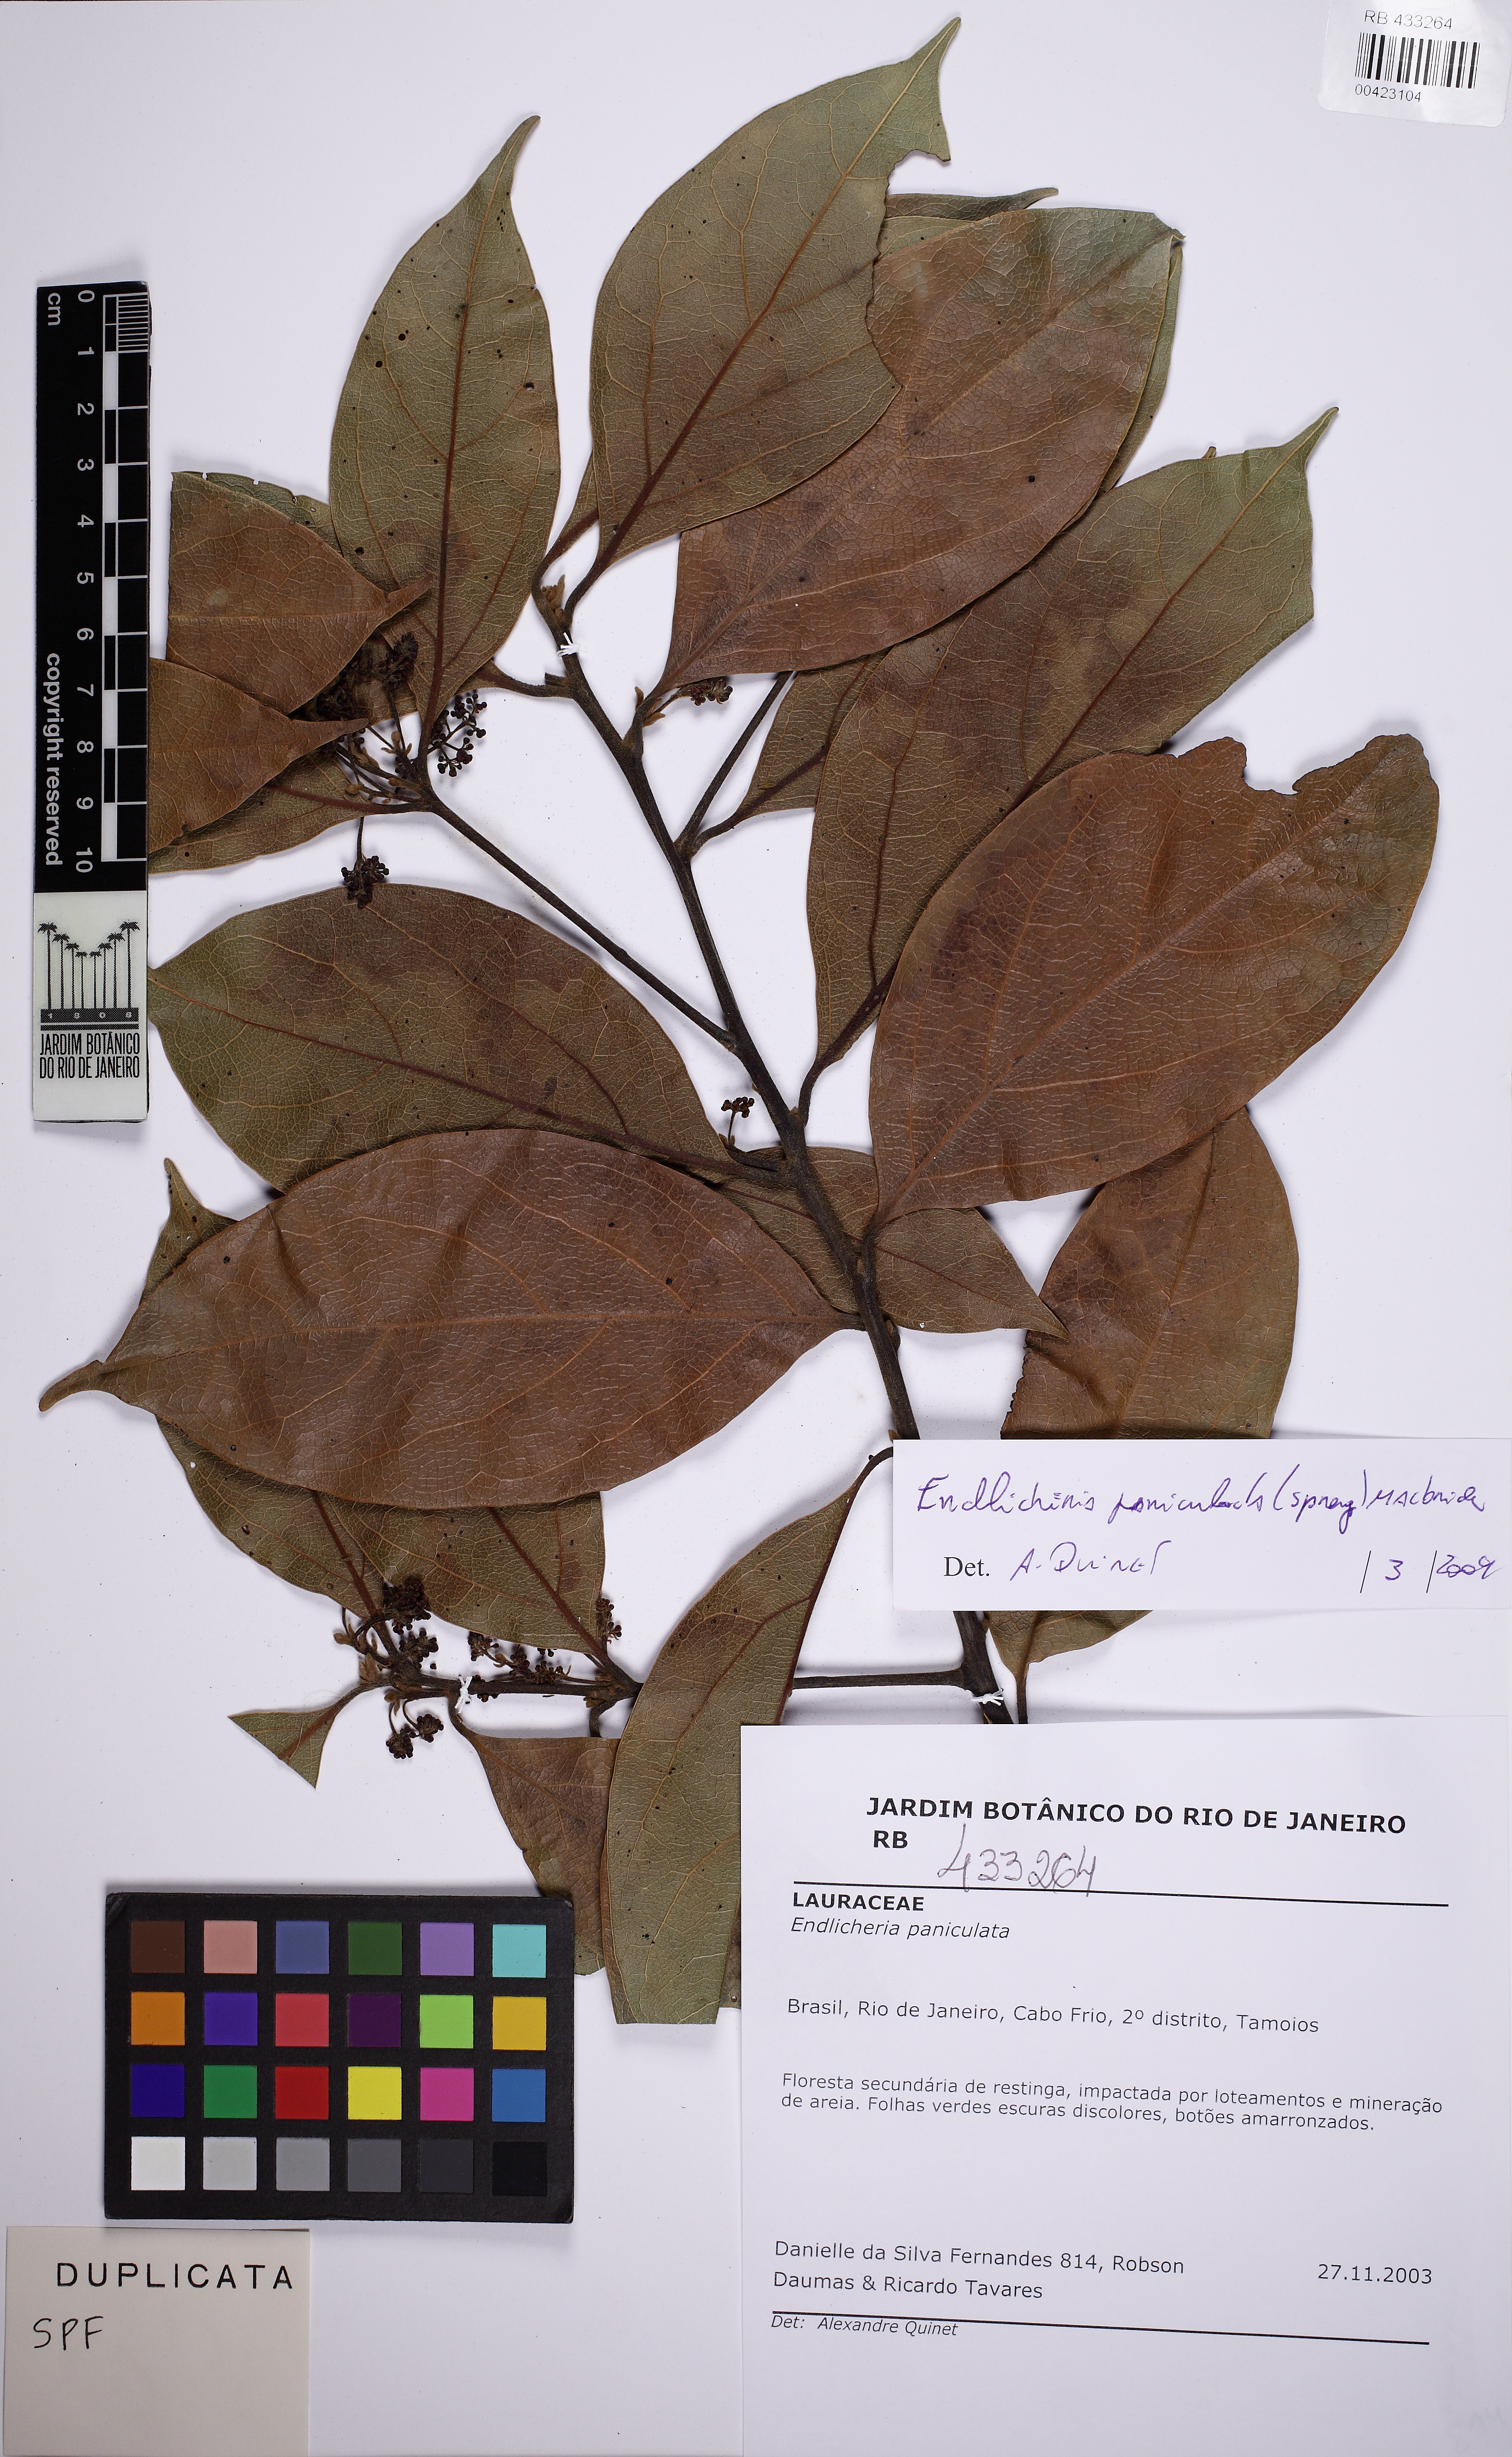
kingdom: Plantae
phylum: Tracheophyta
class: Magnoliopsida
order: Laurales
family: Lauraceae
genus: Endlicheria
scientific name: Endlicheria paniculata
